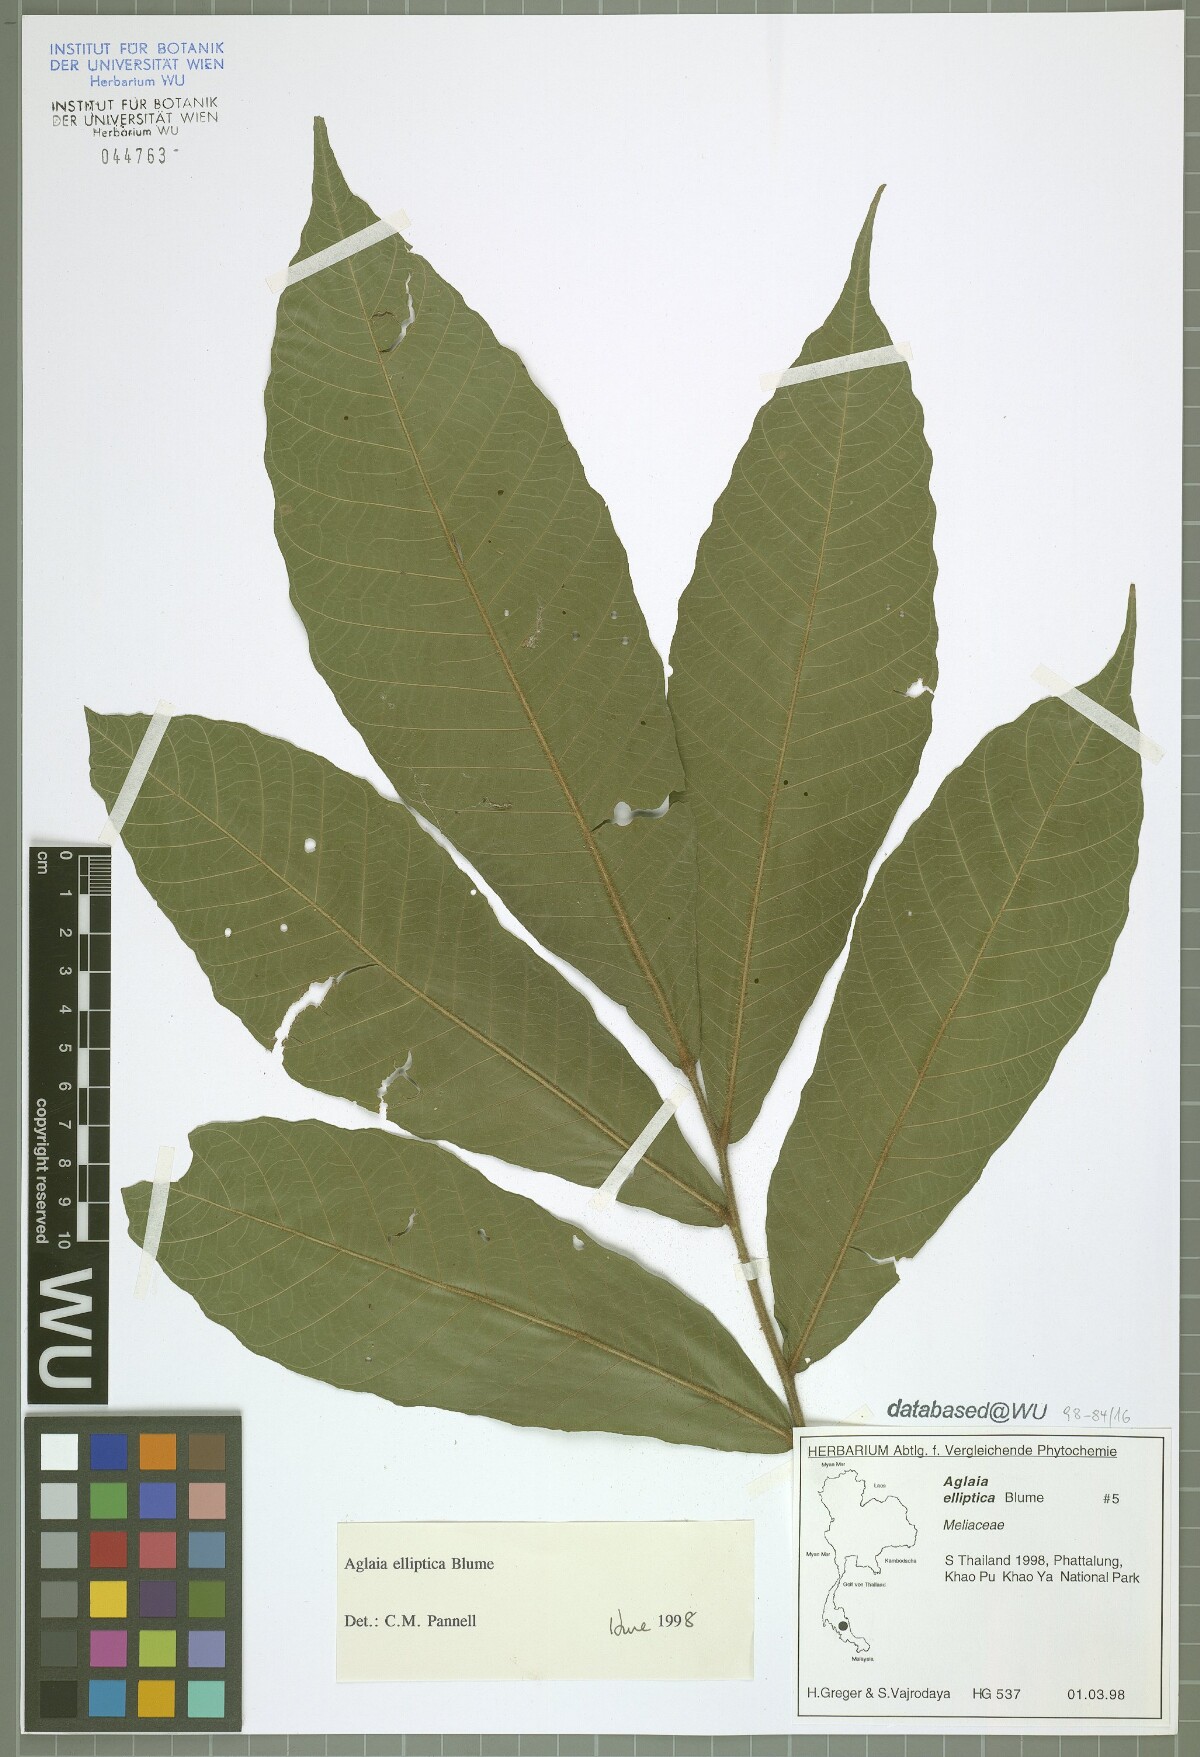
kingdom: Plantae
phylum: Tracheophyta
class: Magnoliopsida
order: Sapindales
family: Meliaceae
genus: Aglaia
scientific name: Aglaia elliptica
